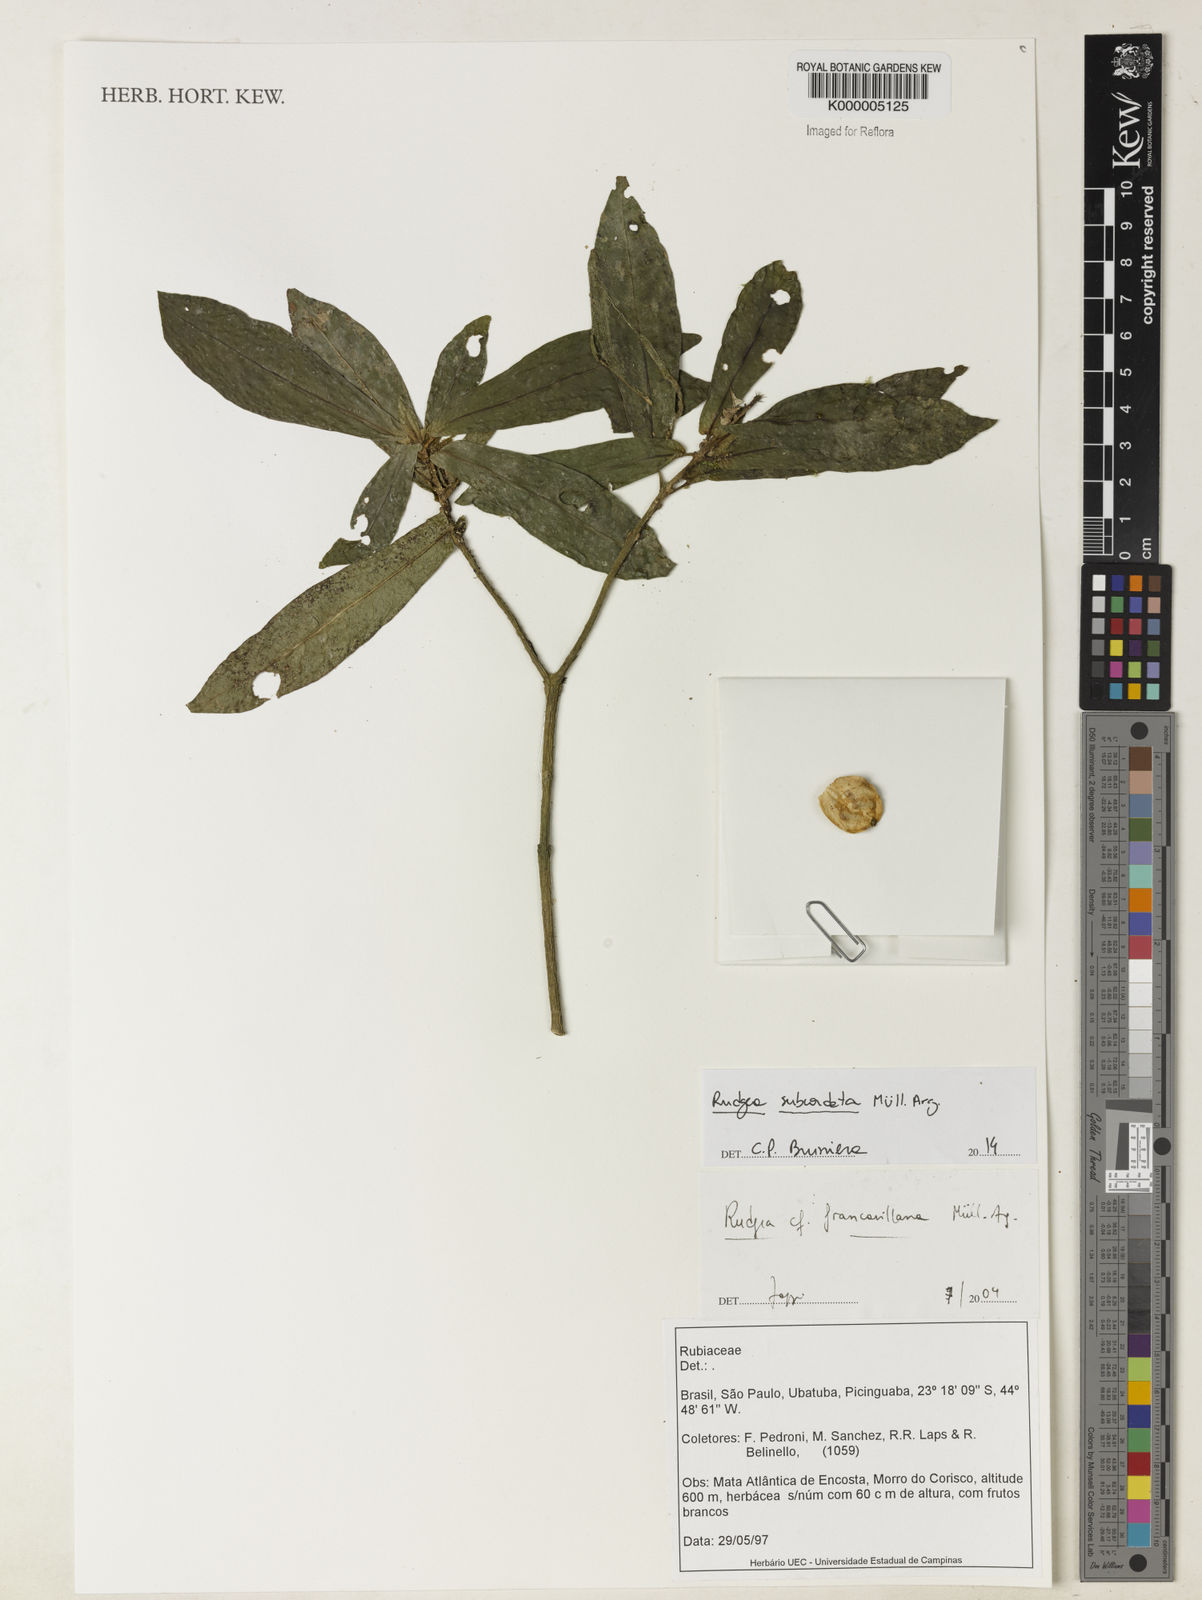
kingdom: Plantae
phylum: Tracheophyta
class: Magnoliopsida
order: Gentianales
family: Rubiaceae
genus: Rudgea
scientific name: Rudgea
